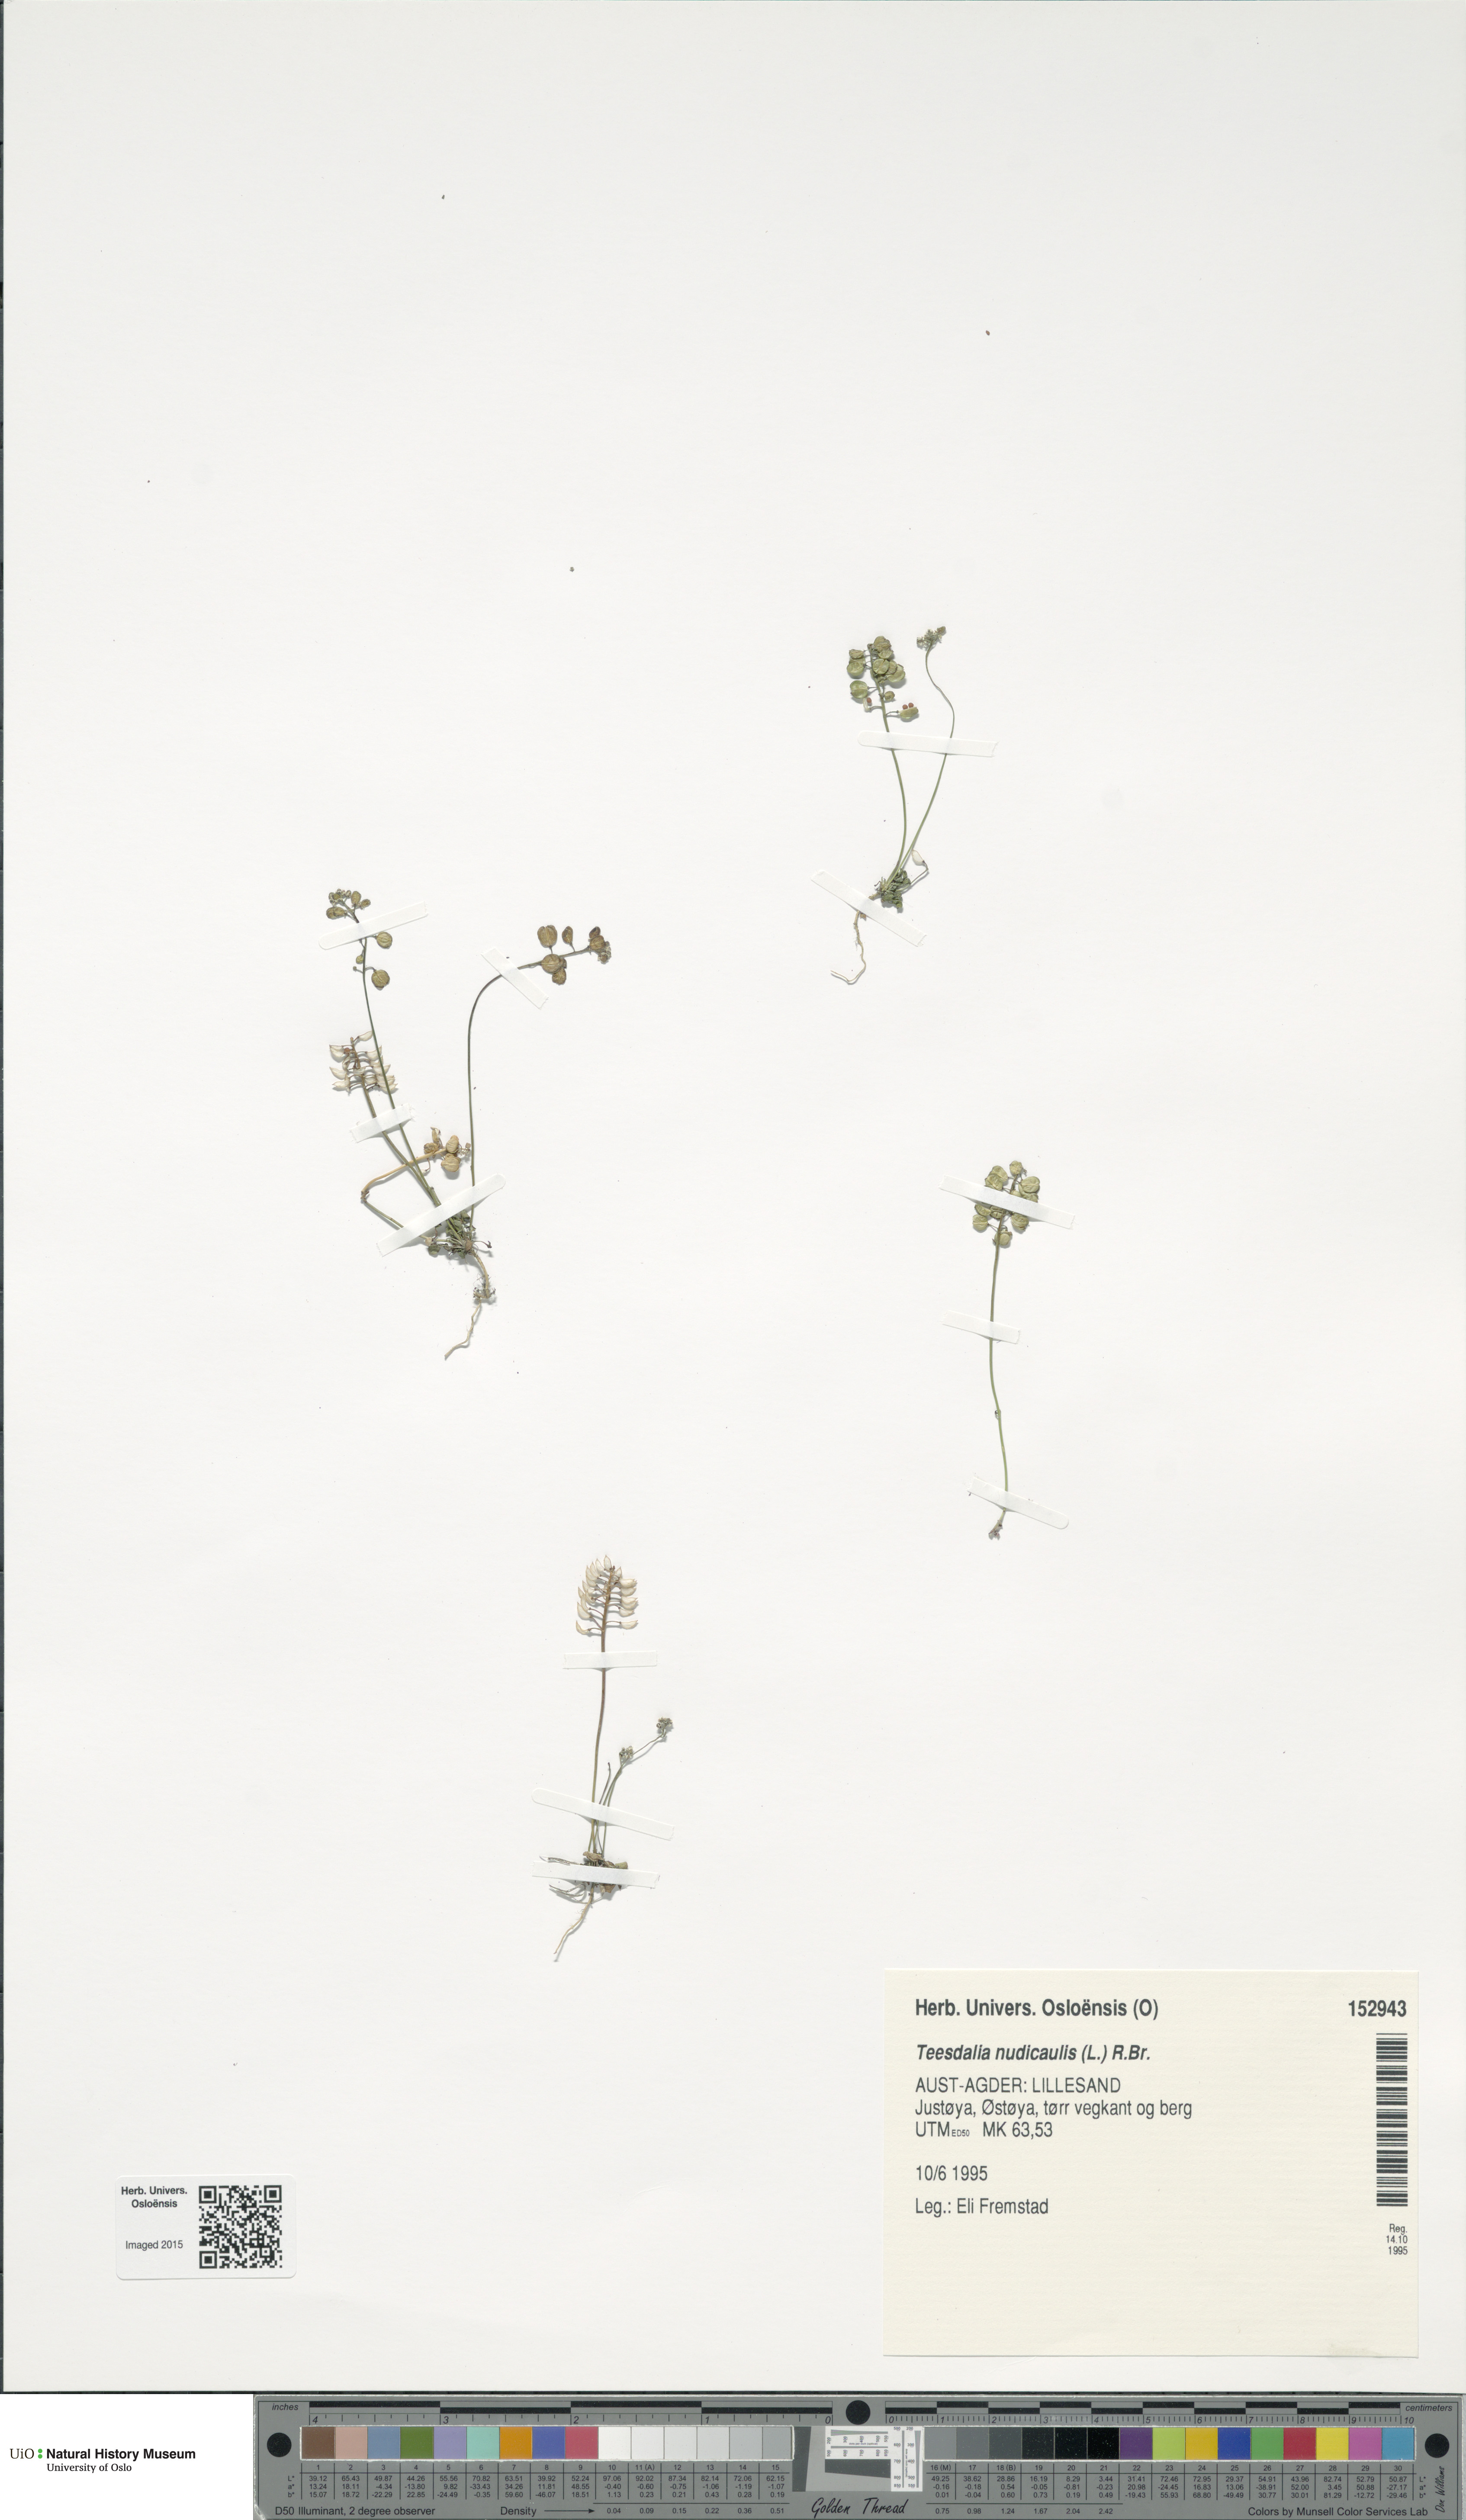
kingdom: Plantae
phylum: Tracheophyta
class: Magnoliopsida
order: Brassicales
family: Brassicaceae
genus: Teesdalia
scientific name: Teesdalia nudicaulis
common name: Shepherd's cress
